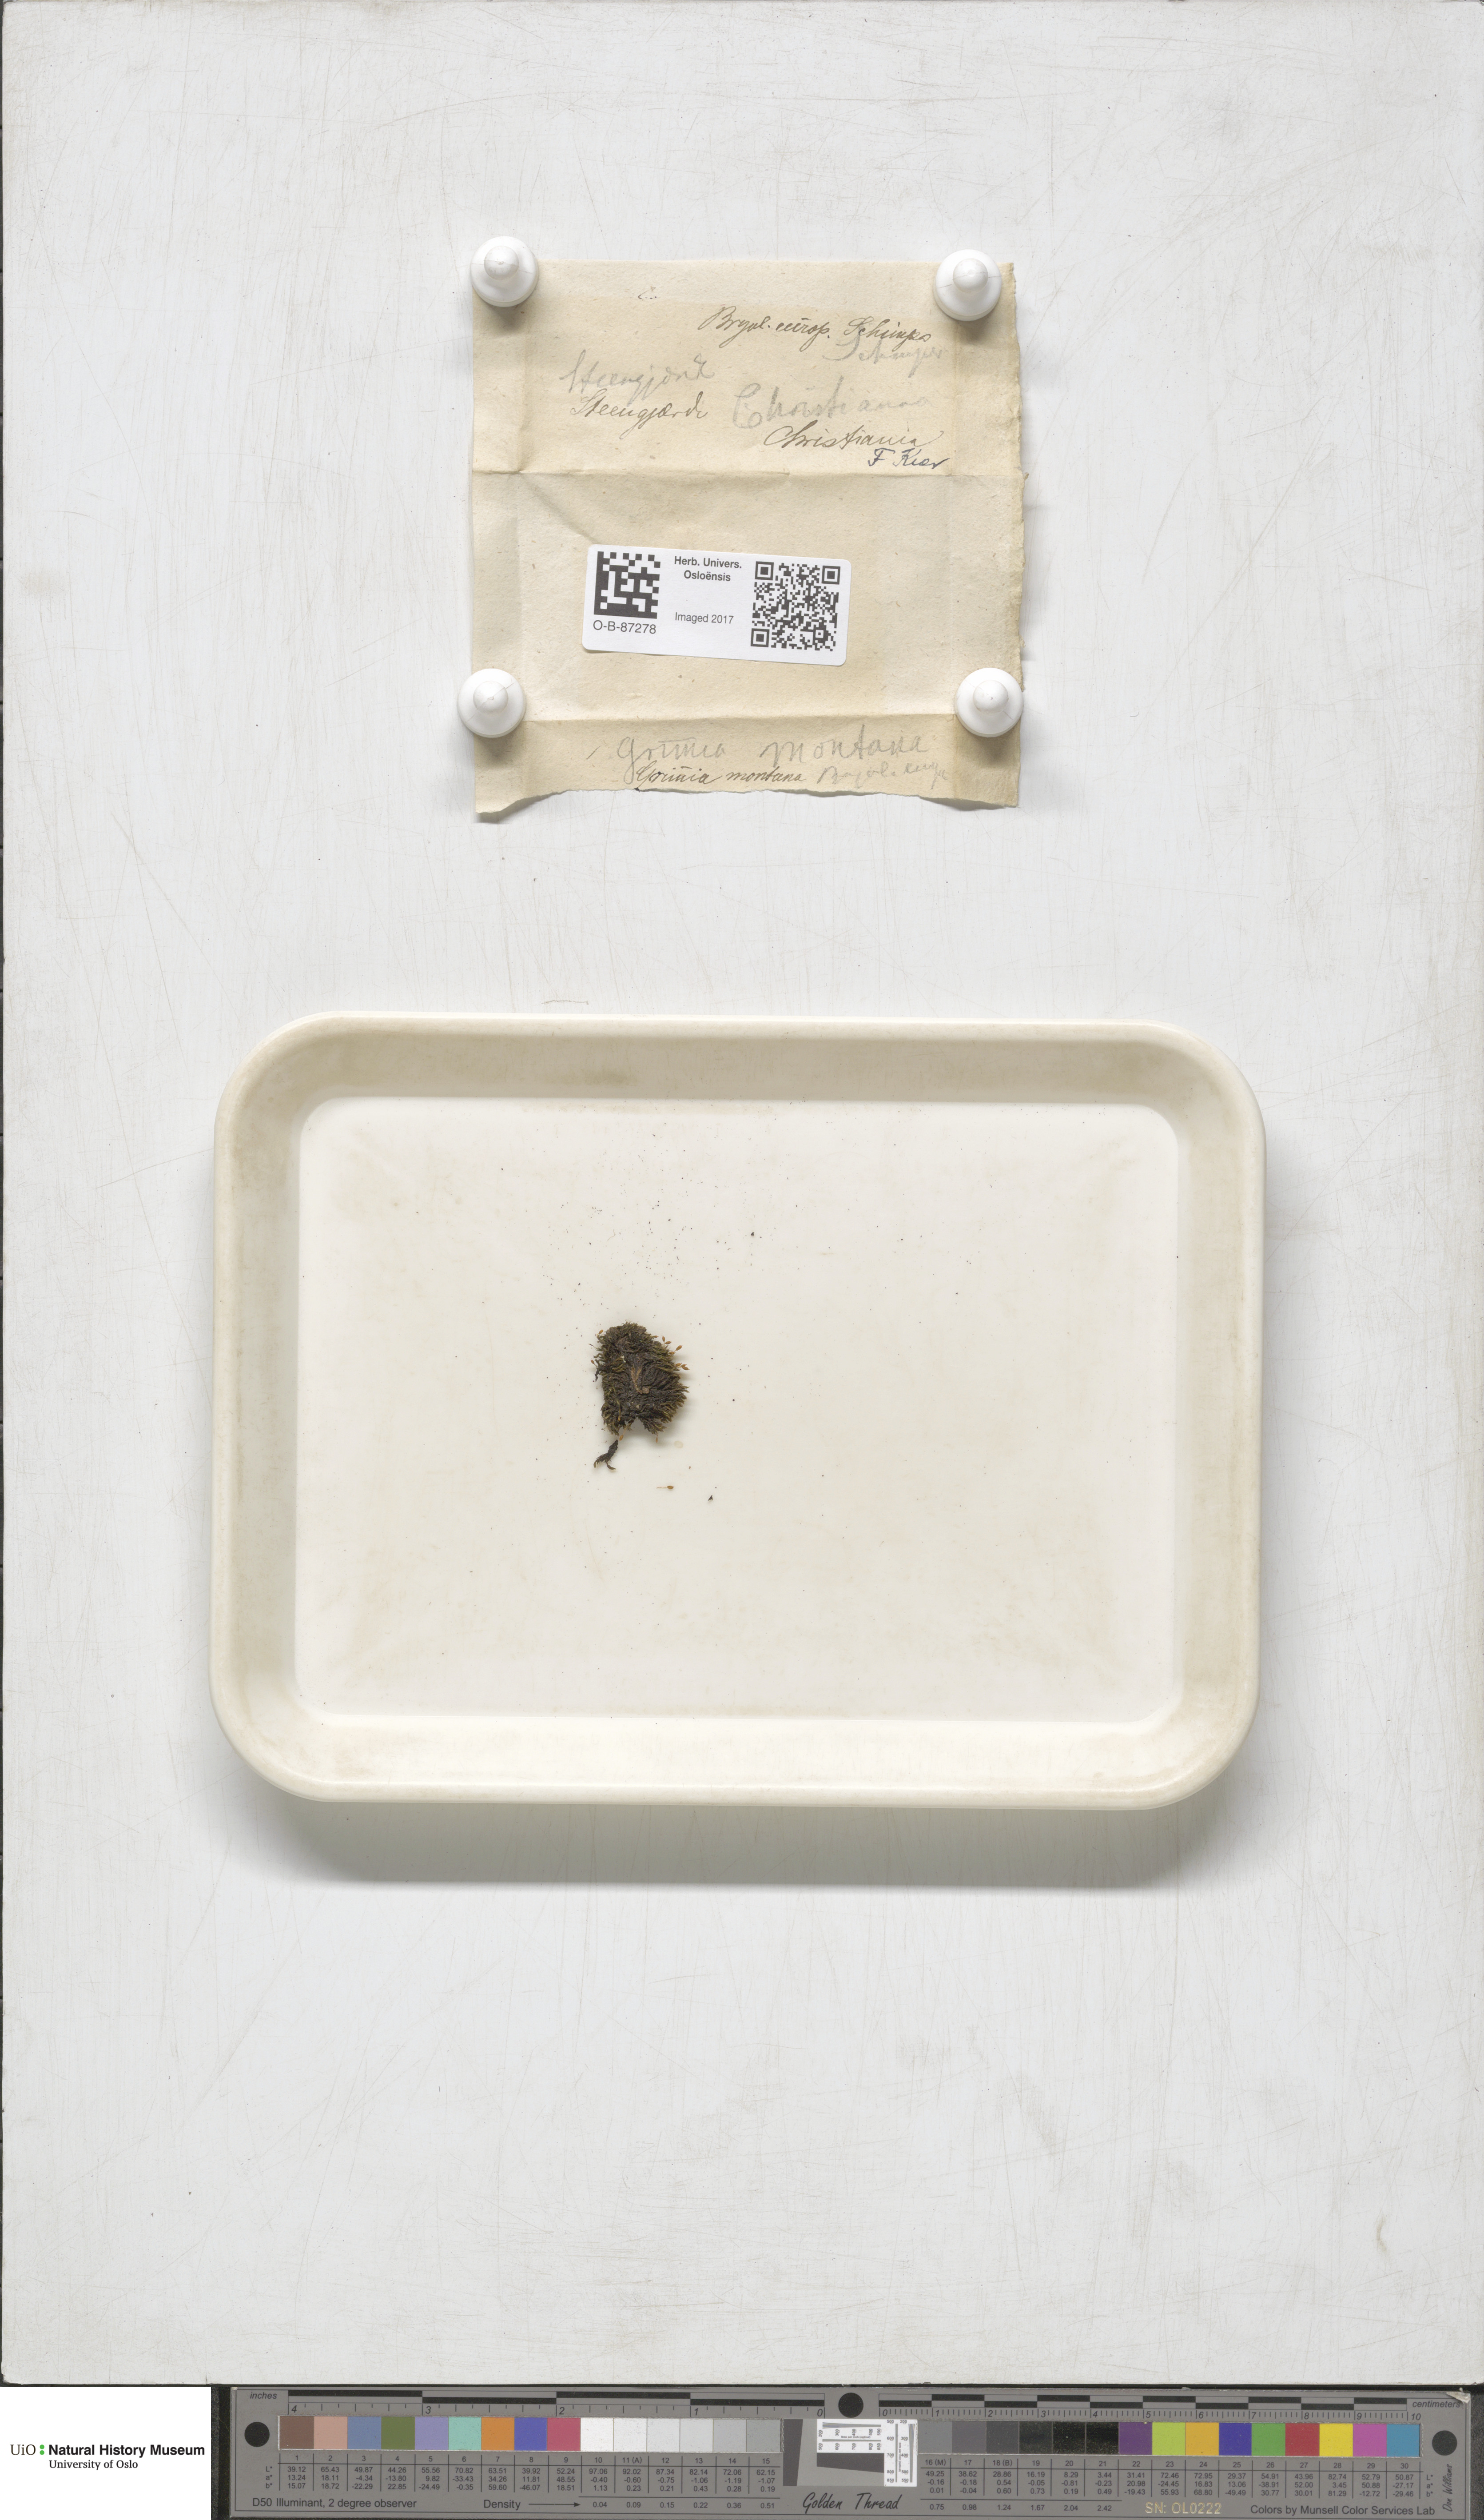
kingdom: Plantae
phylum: Bryophyta
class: Bryopsida
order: Grimmiales
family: Grimmiaceae
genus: Grimmia
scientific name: Grimmia montana
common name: Sun grimmia
